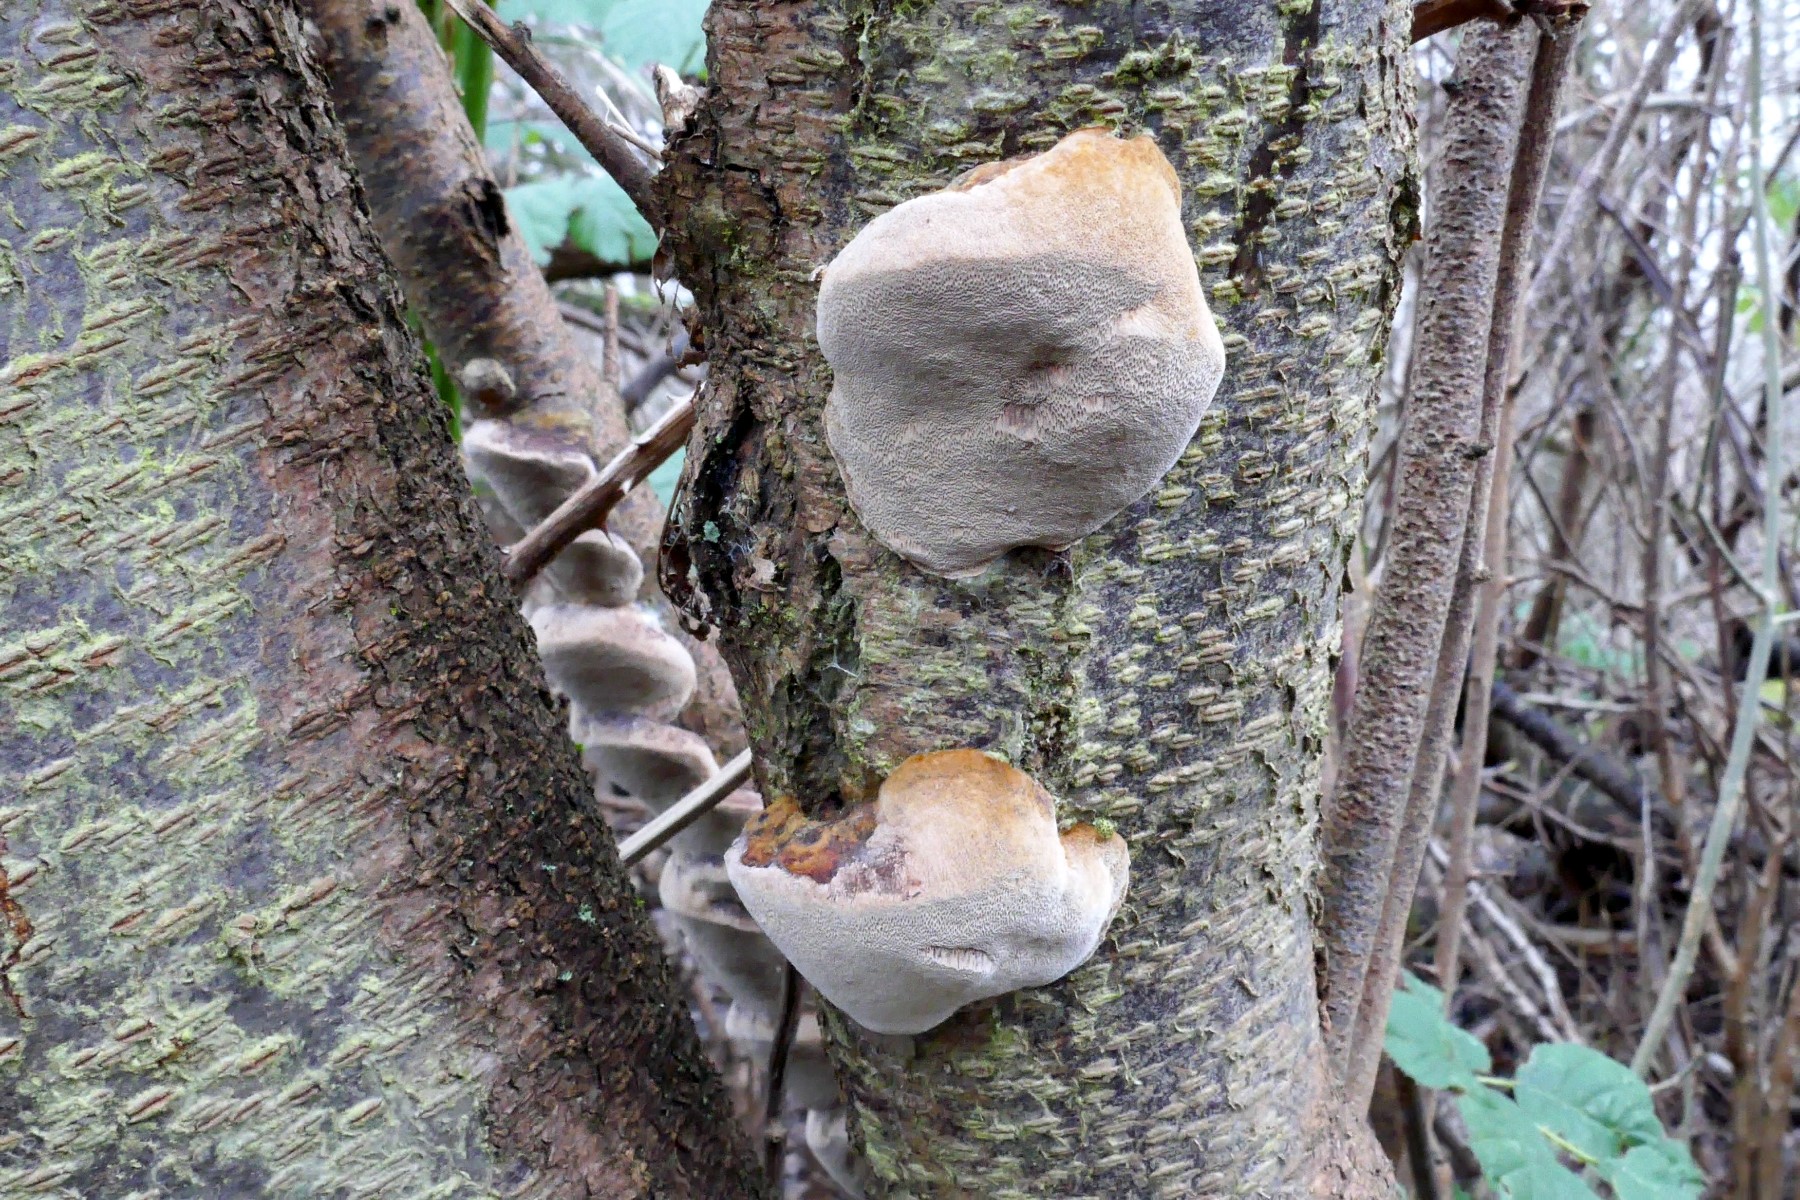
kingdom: Fungi
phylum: Basidiomycota
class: Agaricomycetes
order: Hymenochaetales
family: Hymenochaetaceae
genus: Phellinus
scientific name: Phellinus pomaceus
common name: blomme-ildporesvamp
